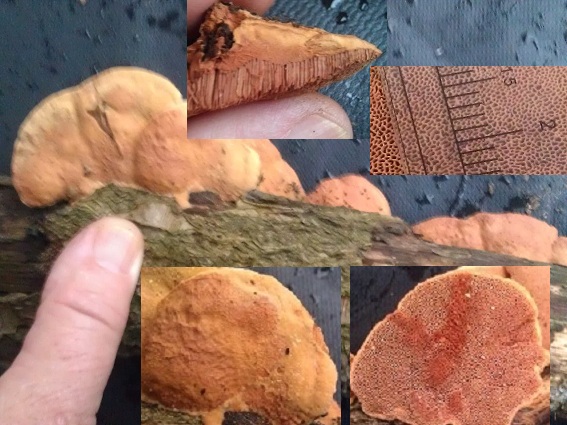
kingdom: Fungi
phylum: Basidiomycota
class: Agaricomycetes
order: Polyporales
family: Phanerochaetaceae
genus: Hapalopilus
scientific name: Hapalopilus rutilans
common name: rødlig okkerporesvamp
